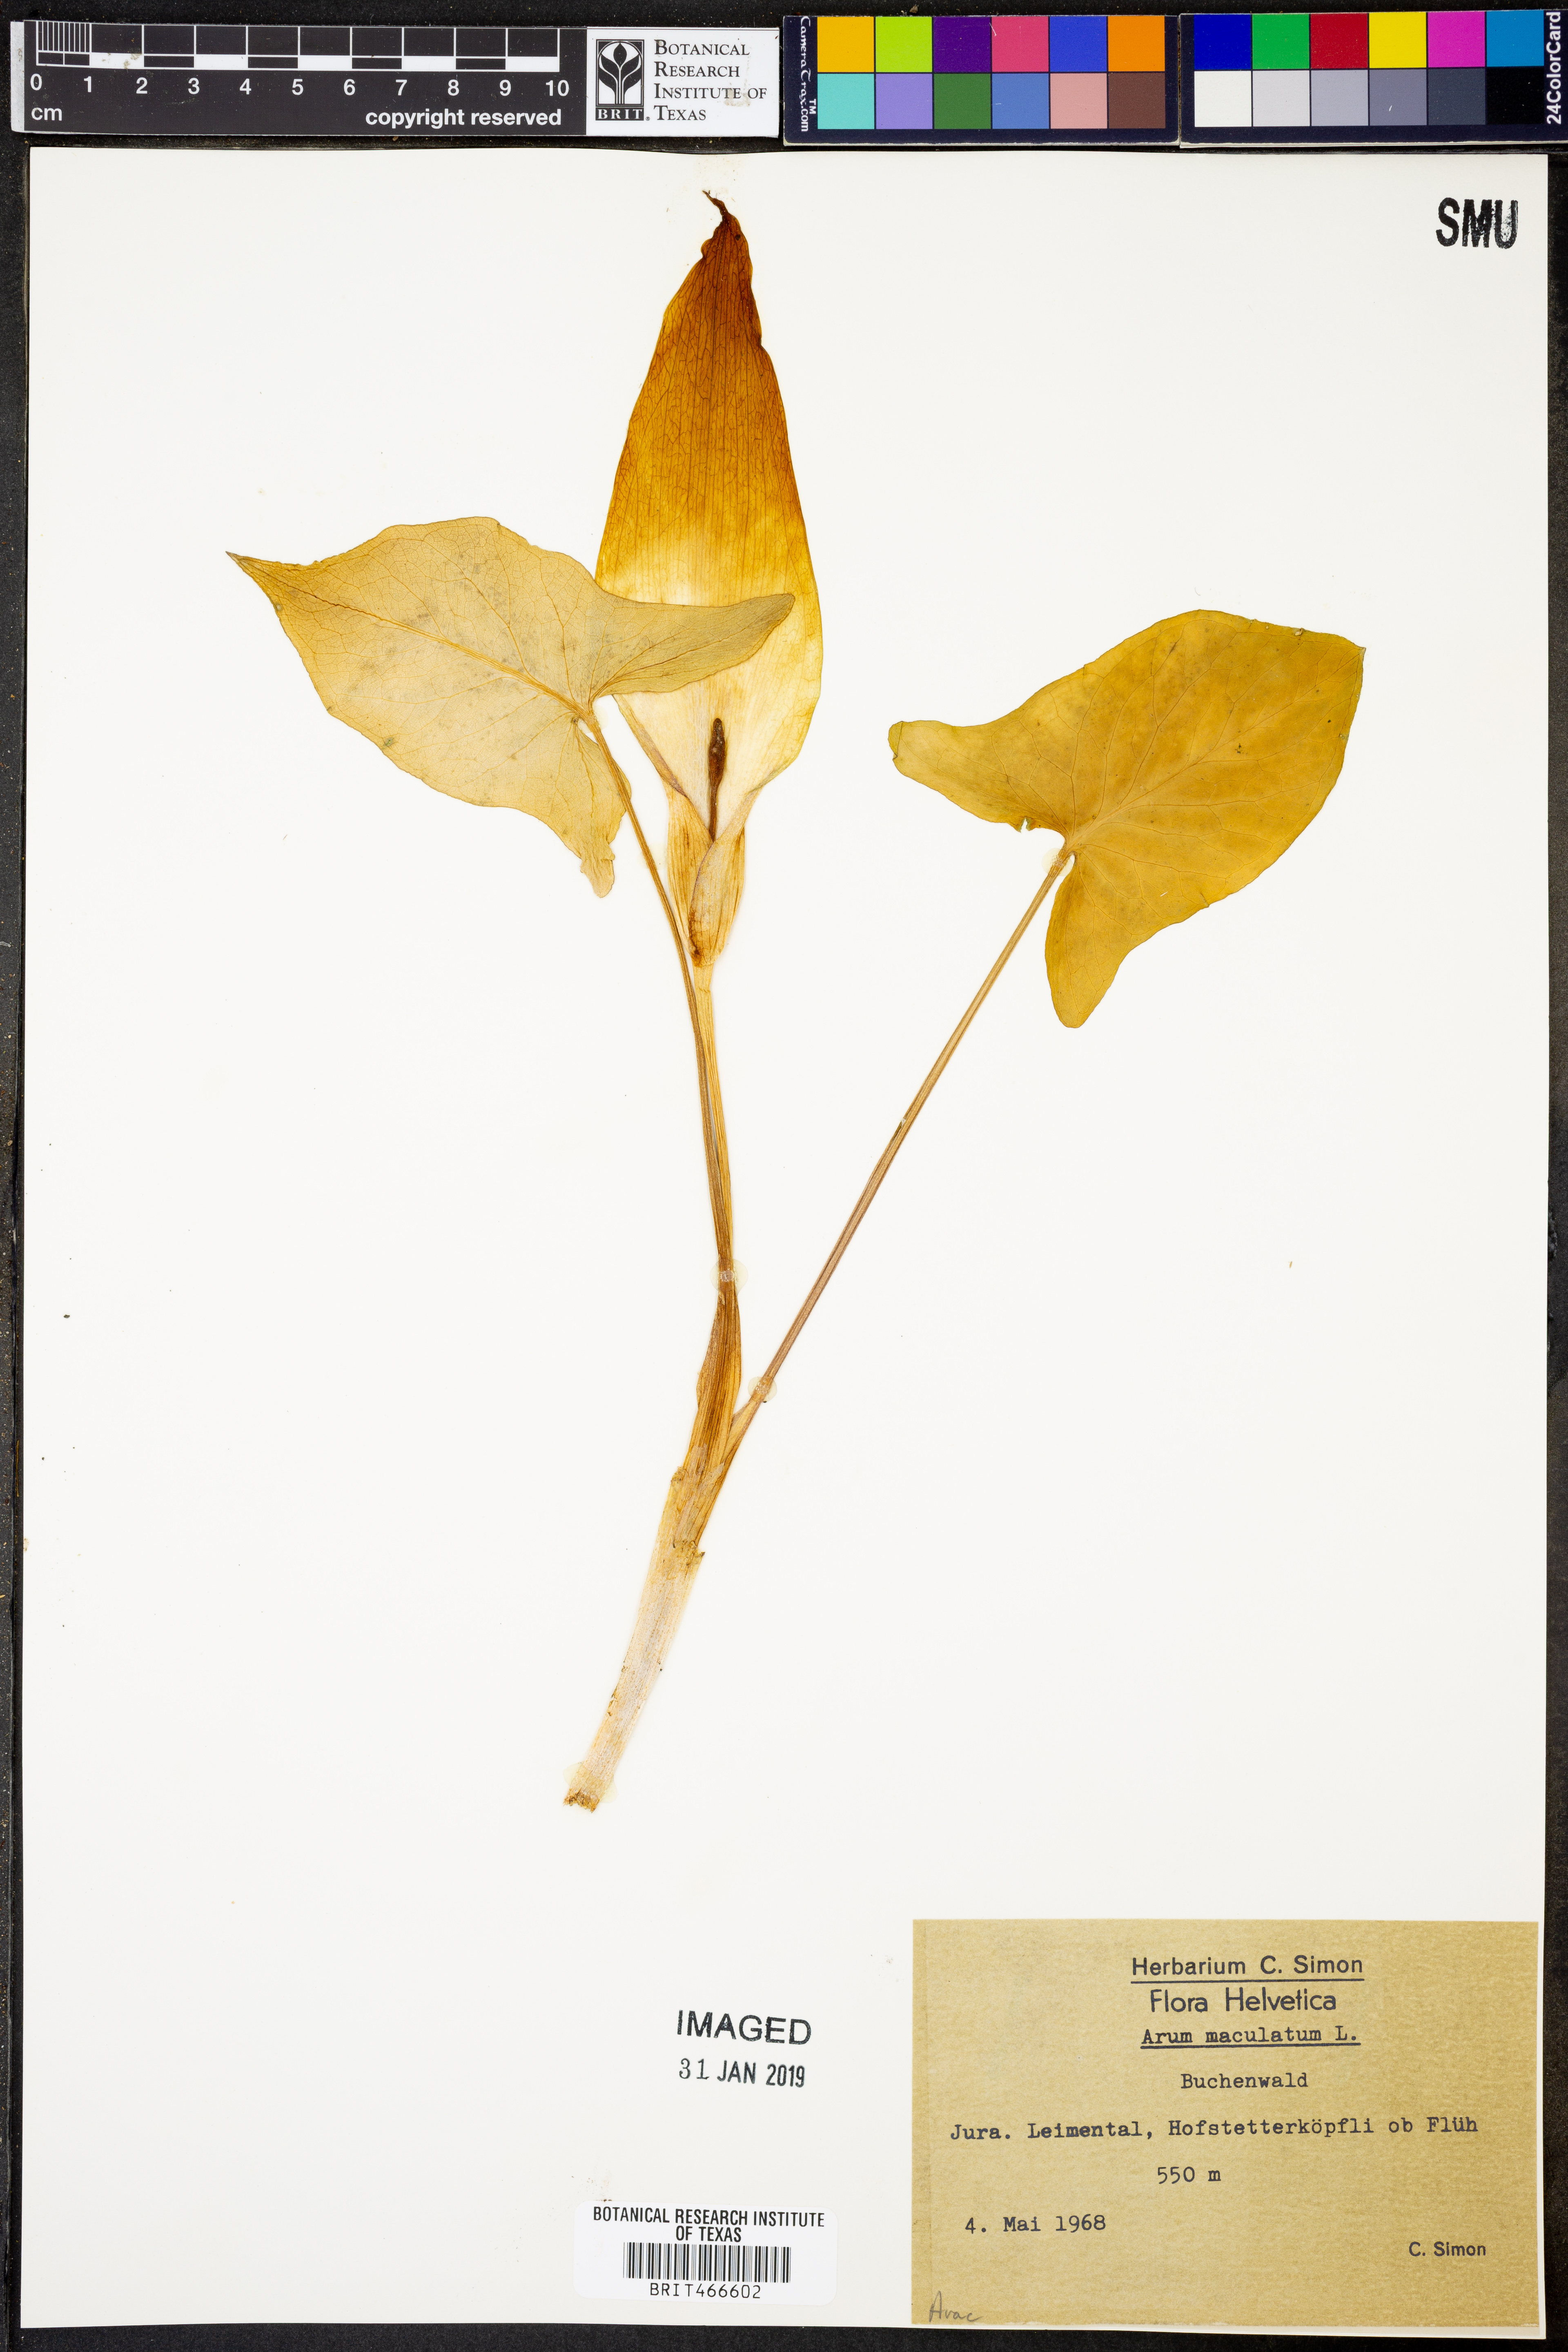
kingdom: Plantae
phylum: Tracheophyta
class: Liliopsida
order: Alismatales
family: Araceae
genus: Arum
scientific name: Arum maculatum
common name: Lords-and-ladies
